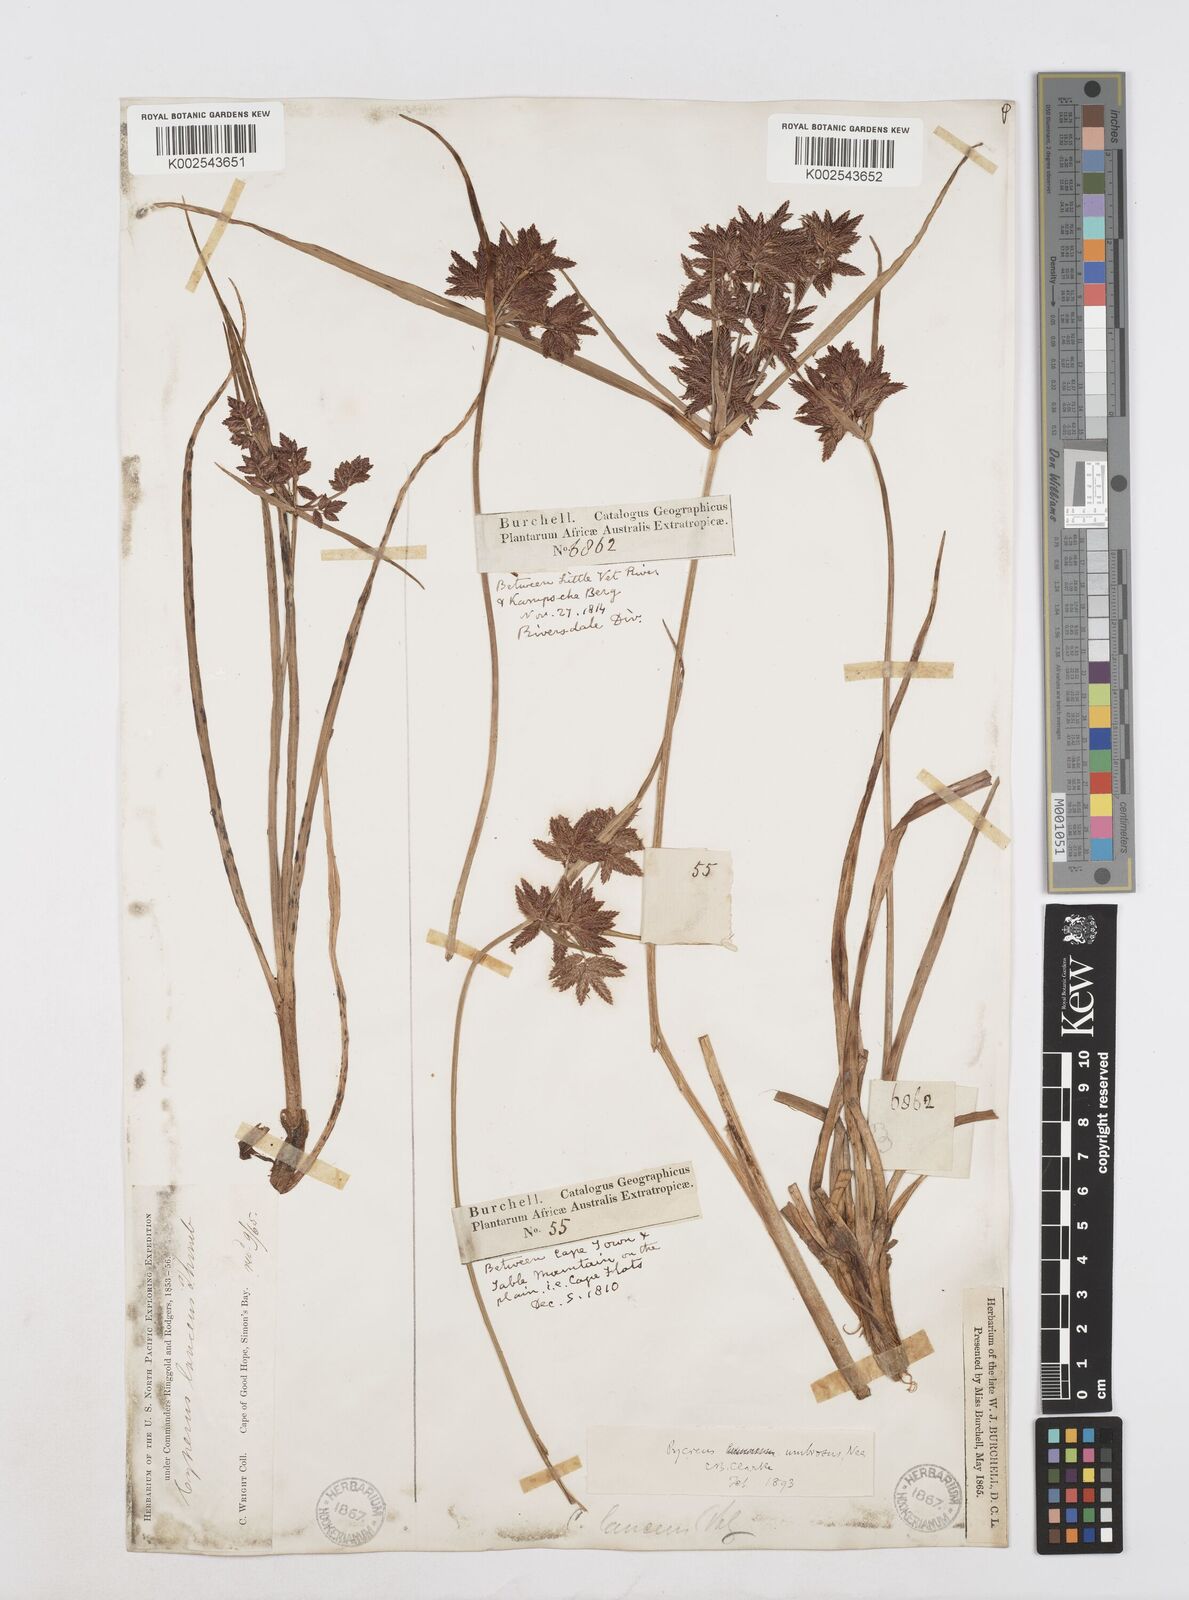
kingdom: Plantae
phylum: Tracheophyta
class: Liliopsida
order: Poales
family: Cyperaceae
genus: Cyperus
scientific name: Cyperus nitidus
